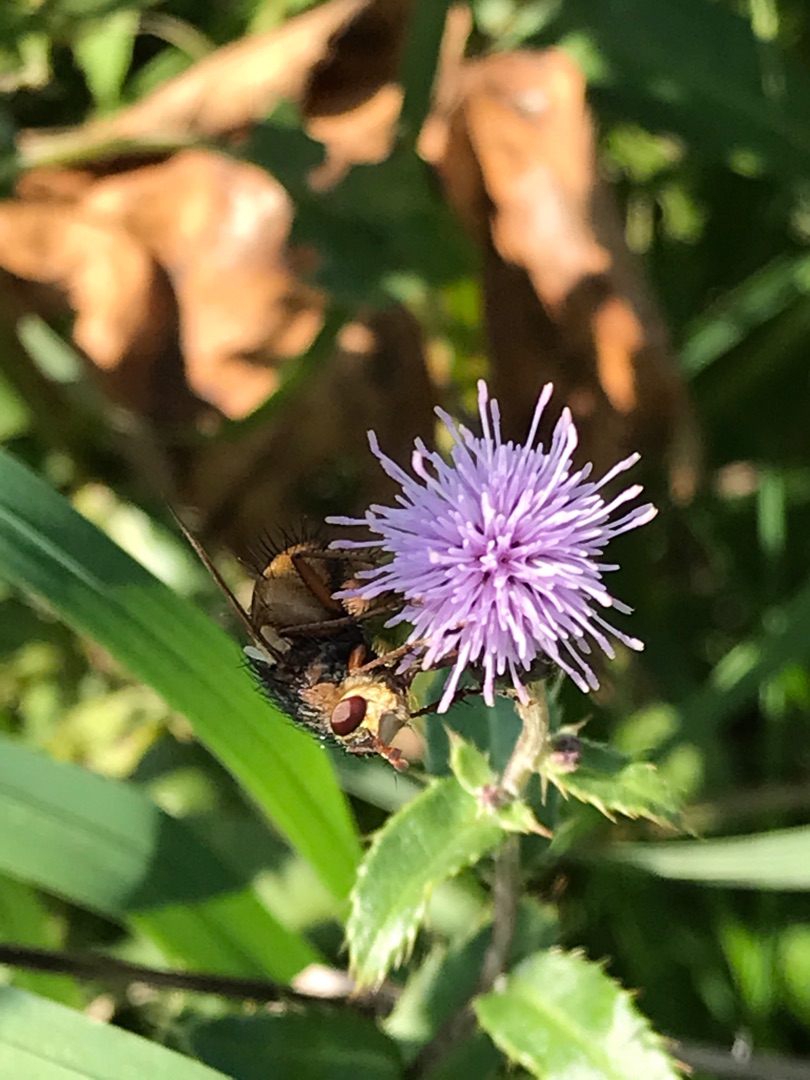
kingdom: Animalia
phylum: Arthropoda
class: Insecta
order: Diptera
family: Tachinidae
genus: Tachina
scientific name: Tachina fera
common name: Mellemfluen oskar
